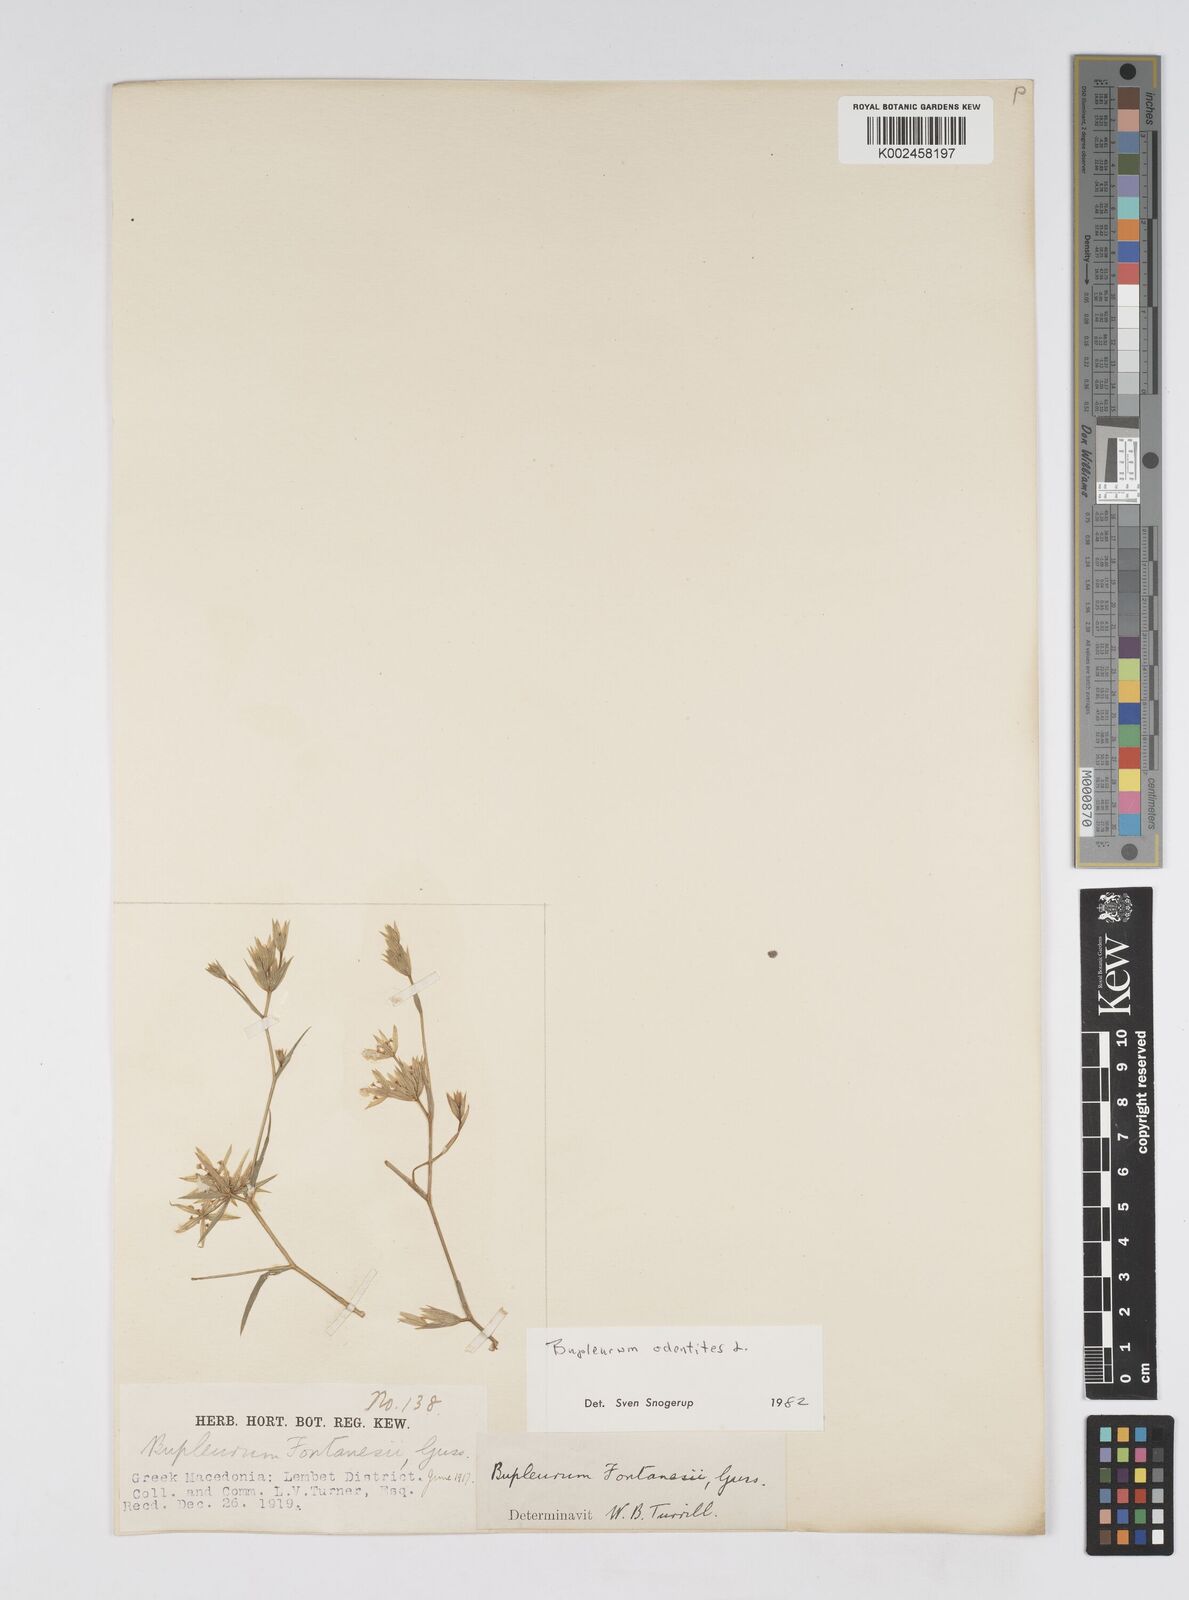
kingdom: Plantae
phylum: Tracheophyta
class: Magnoliopsida
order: Apiales
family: Apiaceae
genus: Bupleurum
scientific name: Bupleurum odontites
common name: Narrowleaf thorow wax
